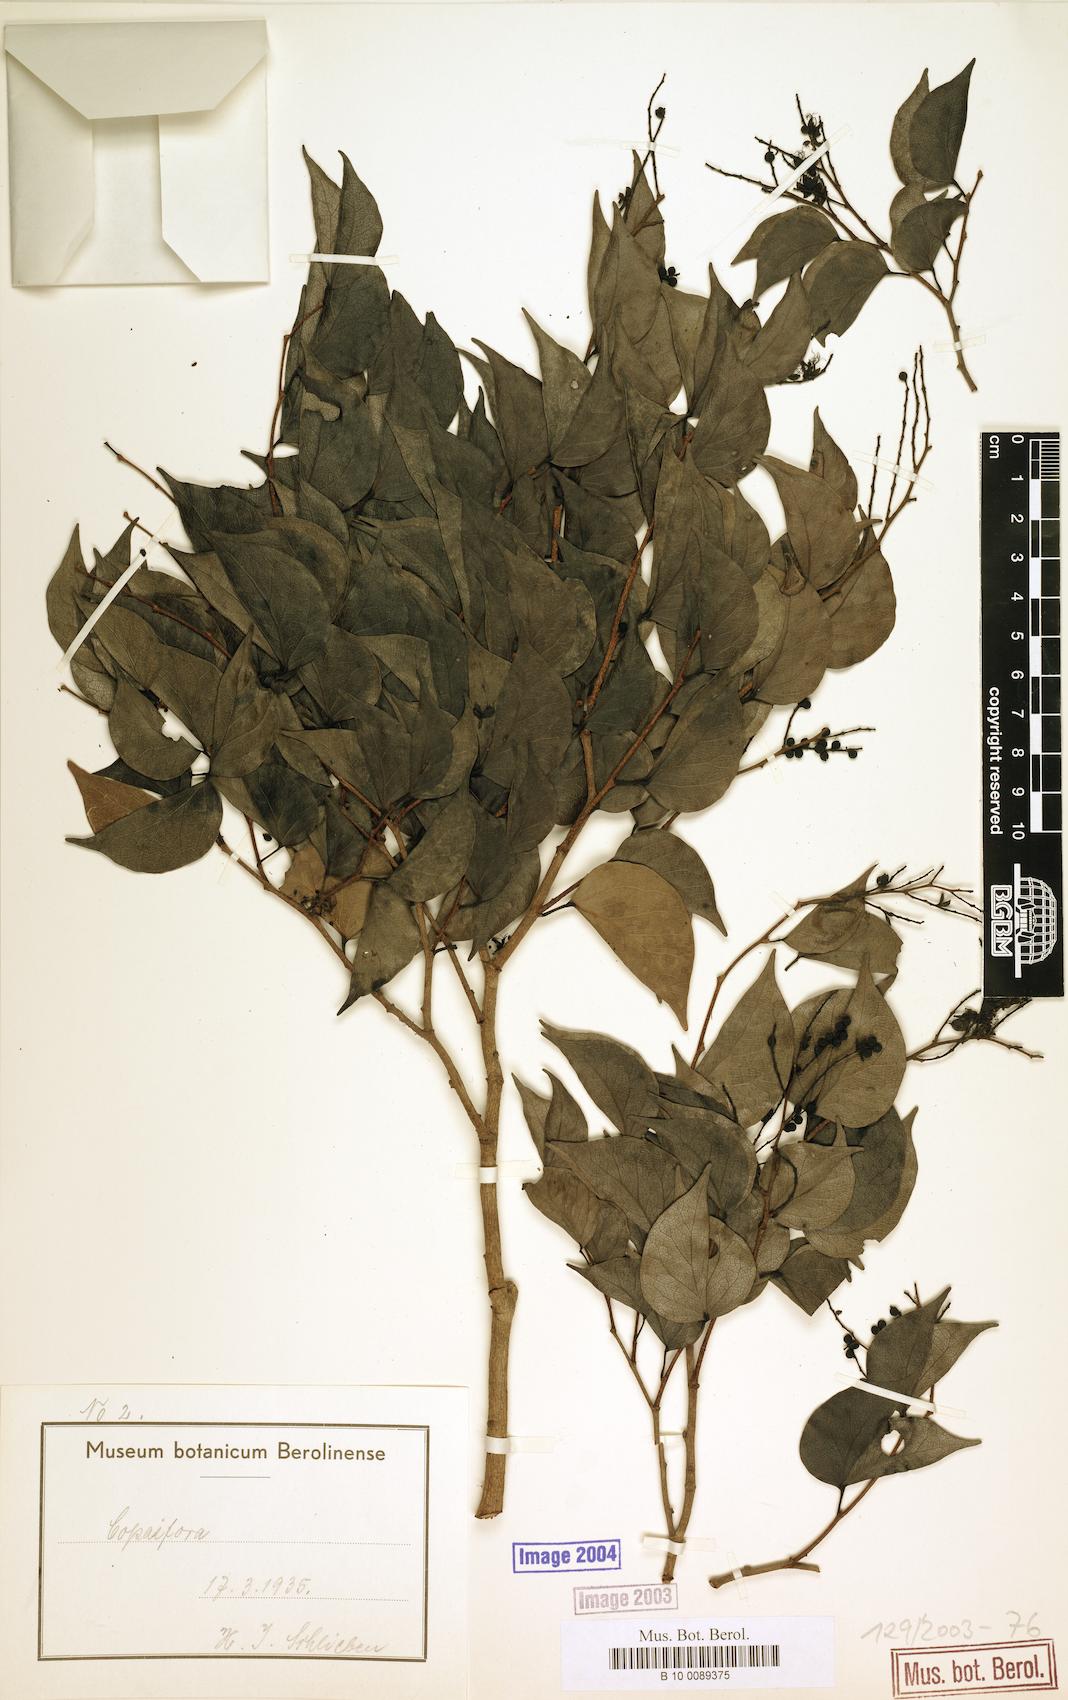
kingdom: Plantae
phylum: Tracheophyta
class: Magnoliopsida
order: Fabales
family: Fabaceae
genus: Guibourtia
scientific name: Guibourtia schliebenii
